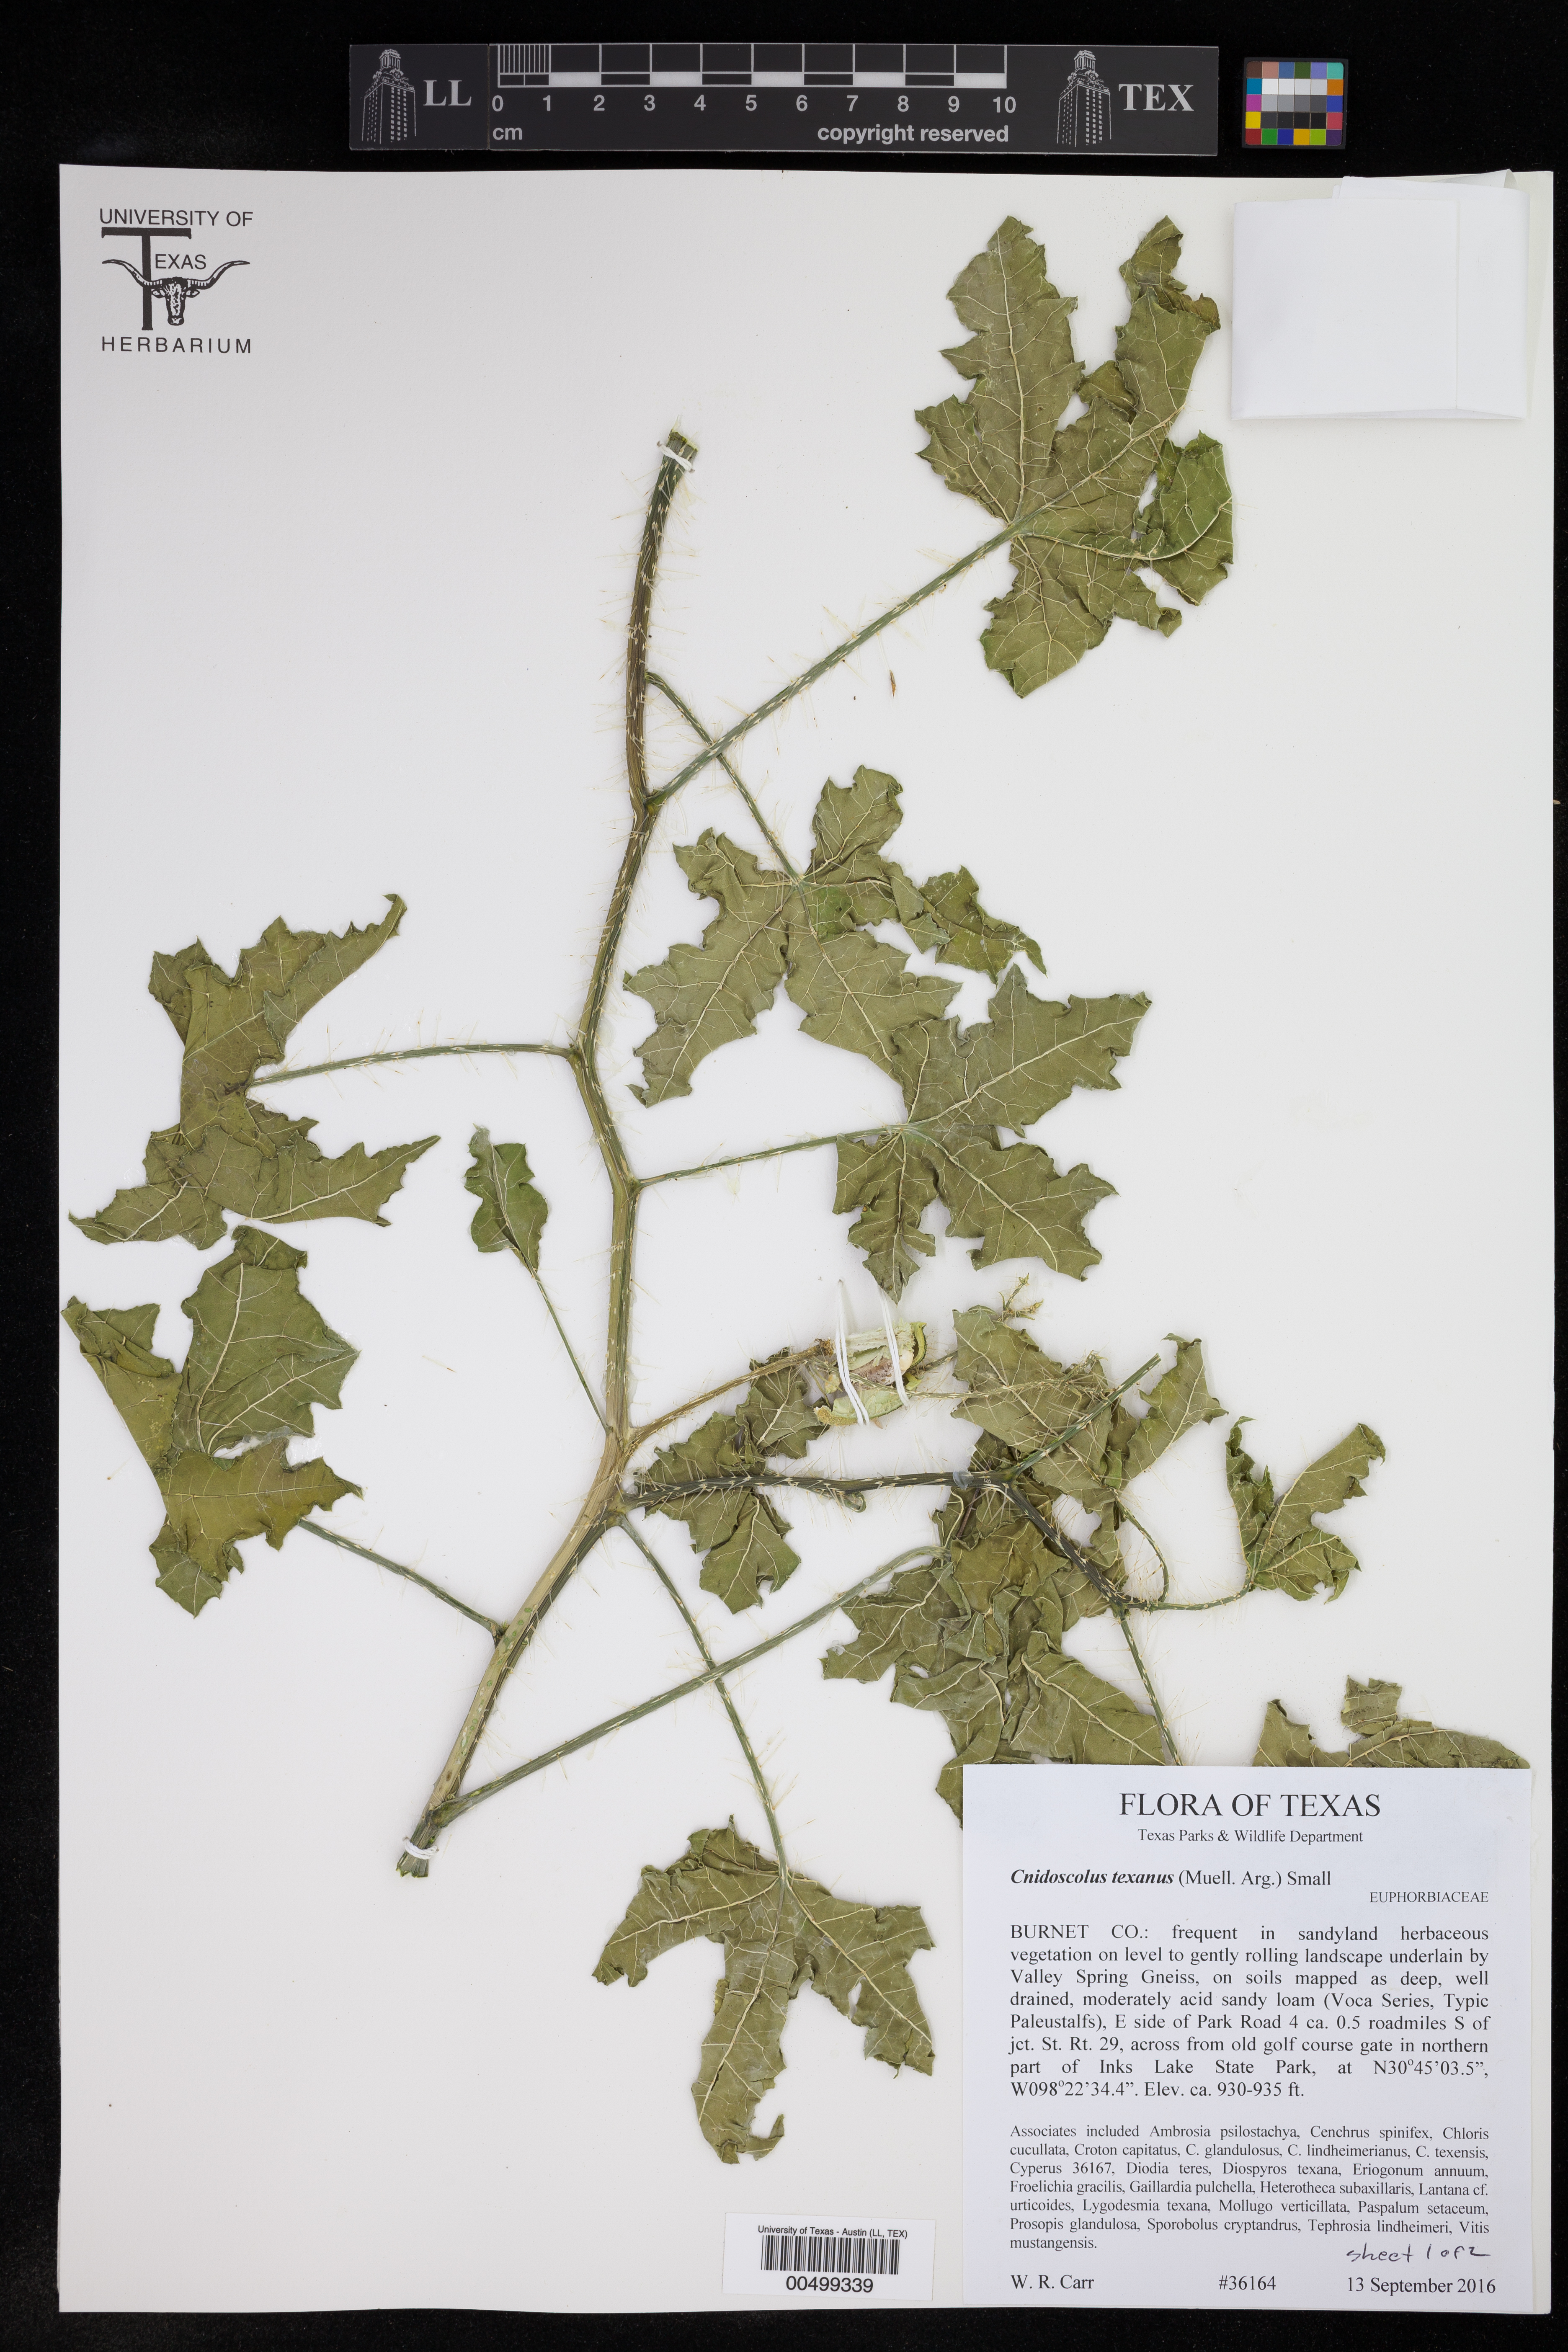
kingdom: Plantae
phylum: Tracheophyta
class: Magnoliopsida
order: Malpighiales
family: Euphorbiaceae
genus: Cnidoscolus
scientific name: Cnidoscolus texanus
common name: Texas bull-nettle
